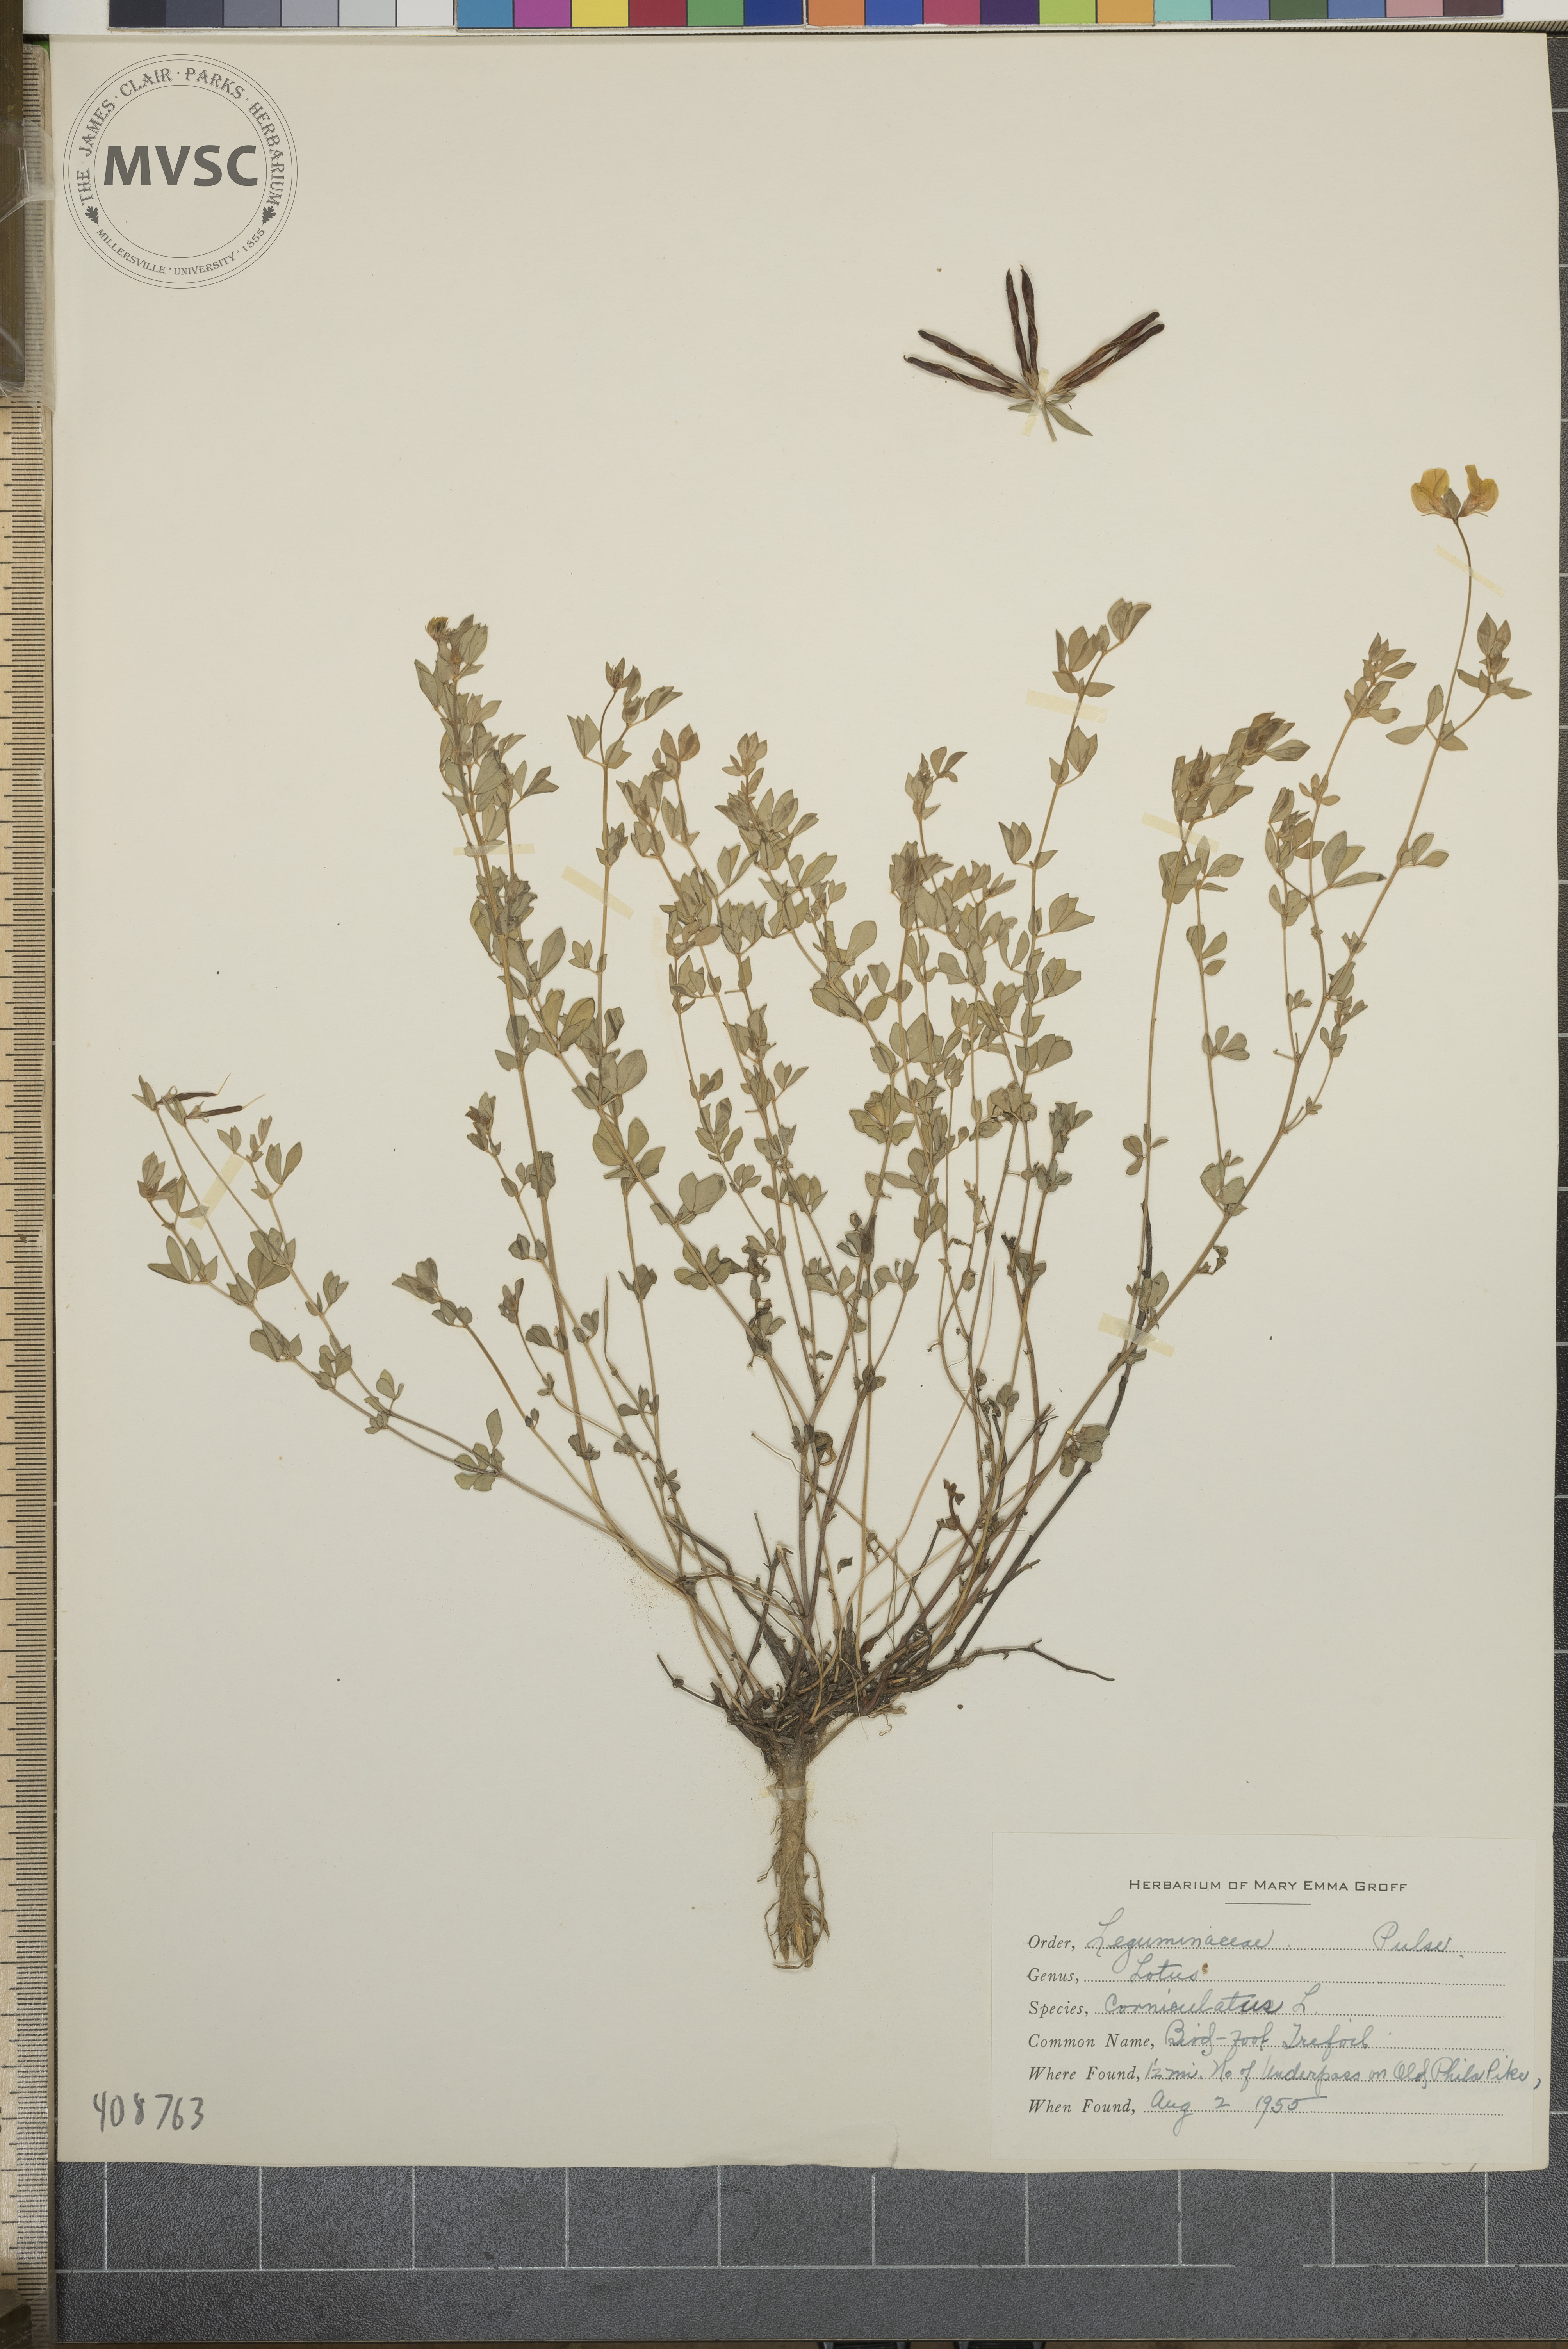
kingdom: Plantae
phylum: Tracheophyta
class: Magnoliopsida
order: Fabales
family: Fabaceae
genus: Lotus
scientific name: Lotus corniculatus
